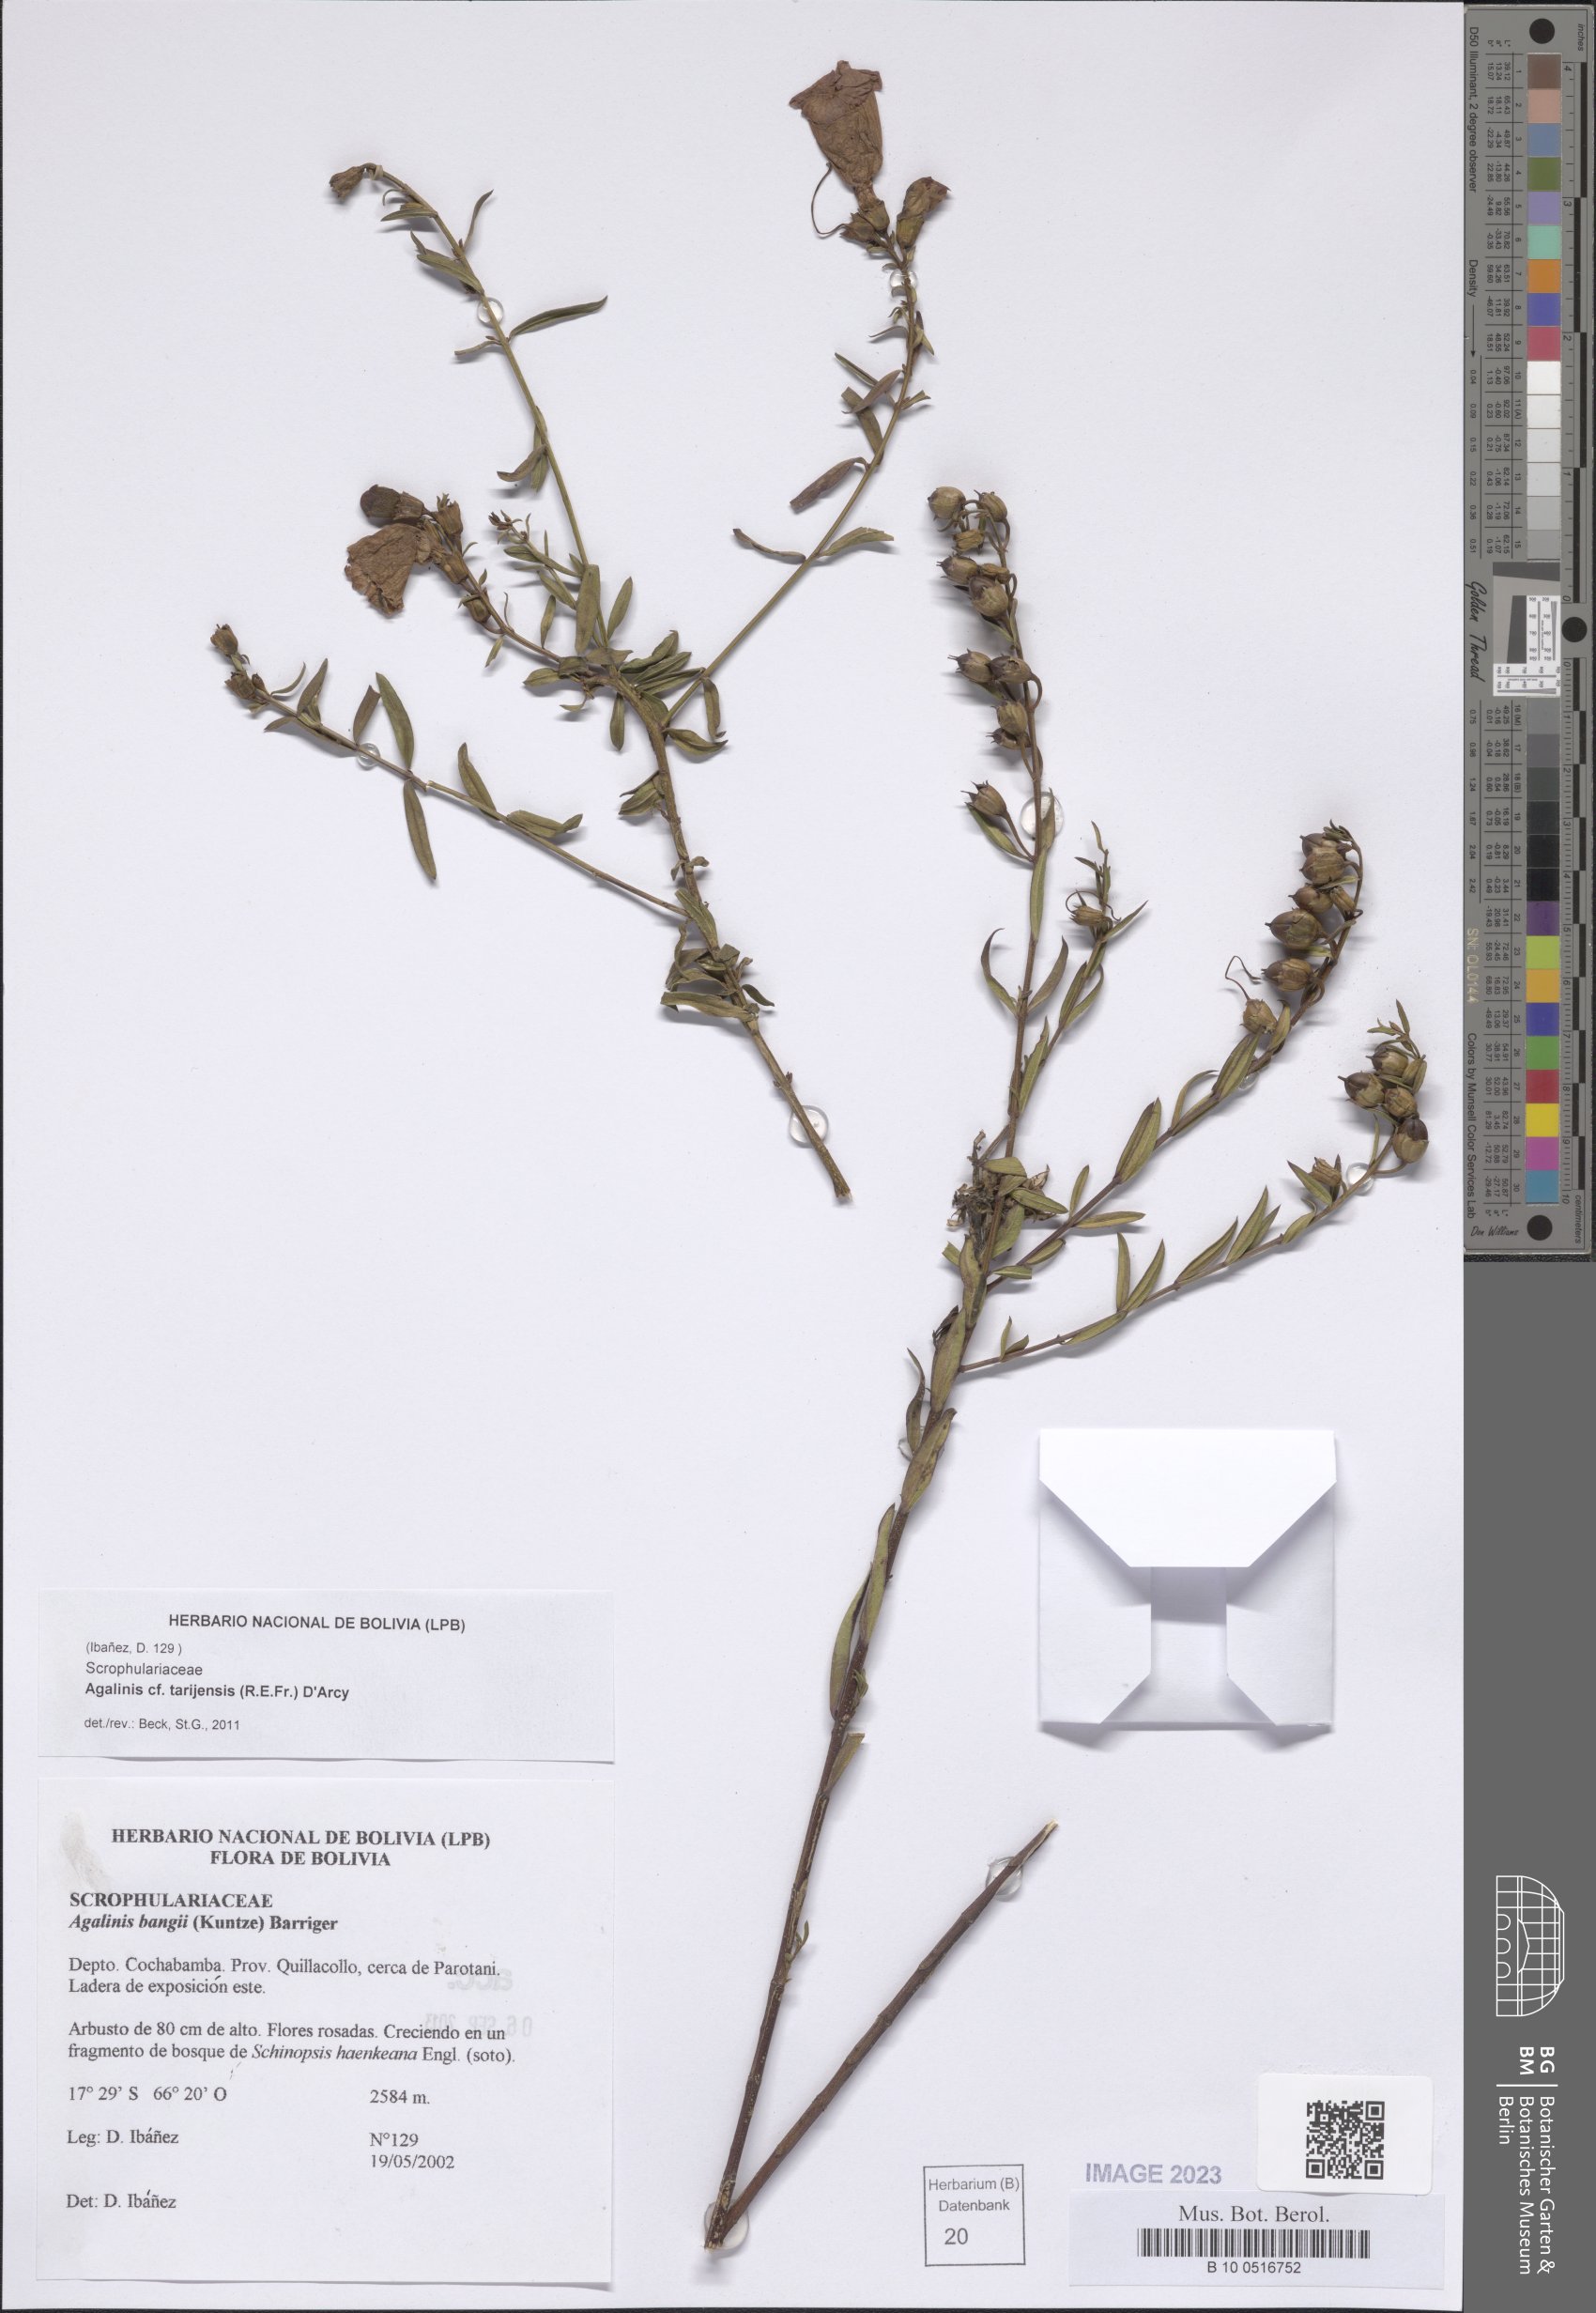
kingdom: Plantae
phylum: Tracheophyta
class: Magnoliopsida
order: Lamiales
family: Orobanchaceae
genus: Agalinis
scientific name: Agalinis tarijensis
